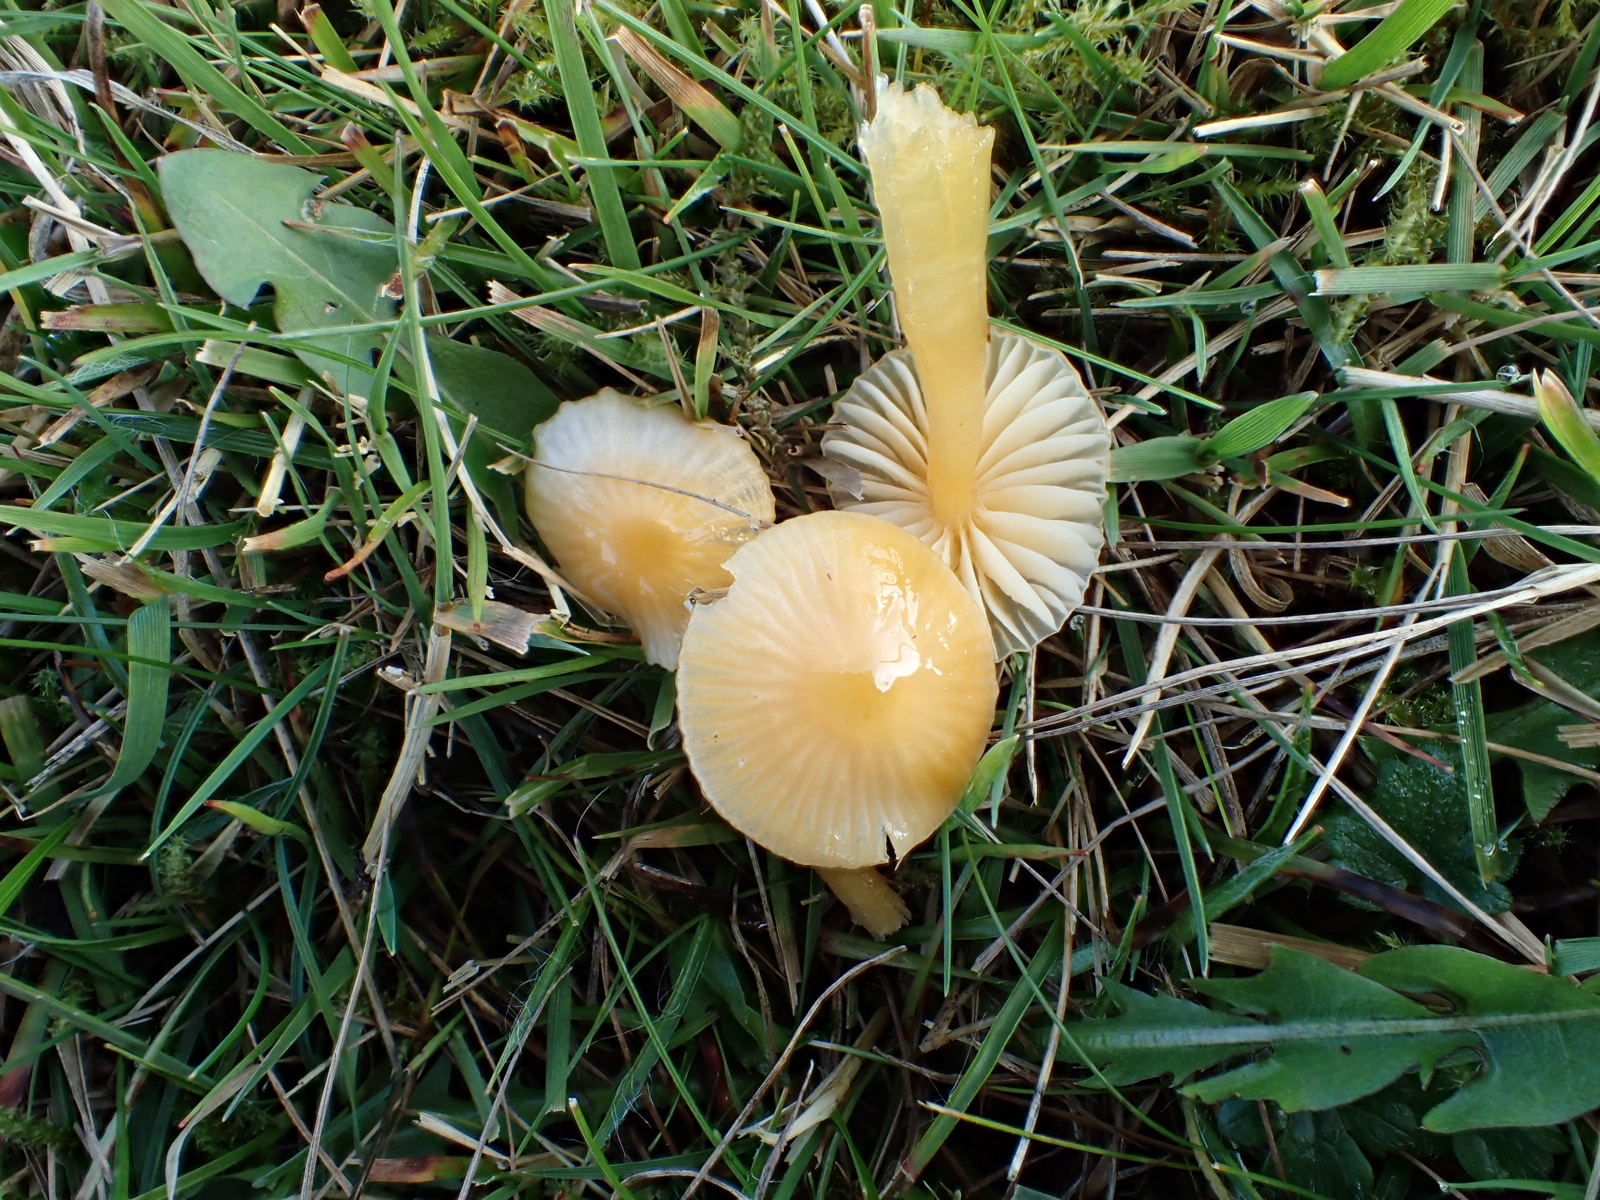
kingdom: Fungi
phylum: Basidiomycota
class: Agaricomycetes
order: Agaricales
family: Hygrophoraceae
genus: Gliophorus
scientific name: Gliophorus psittacinus
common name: papegøje-vokshat
